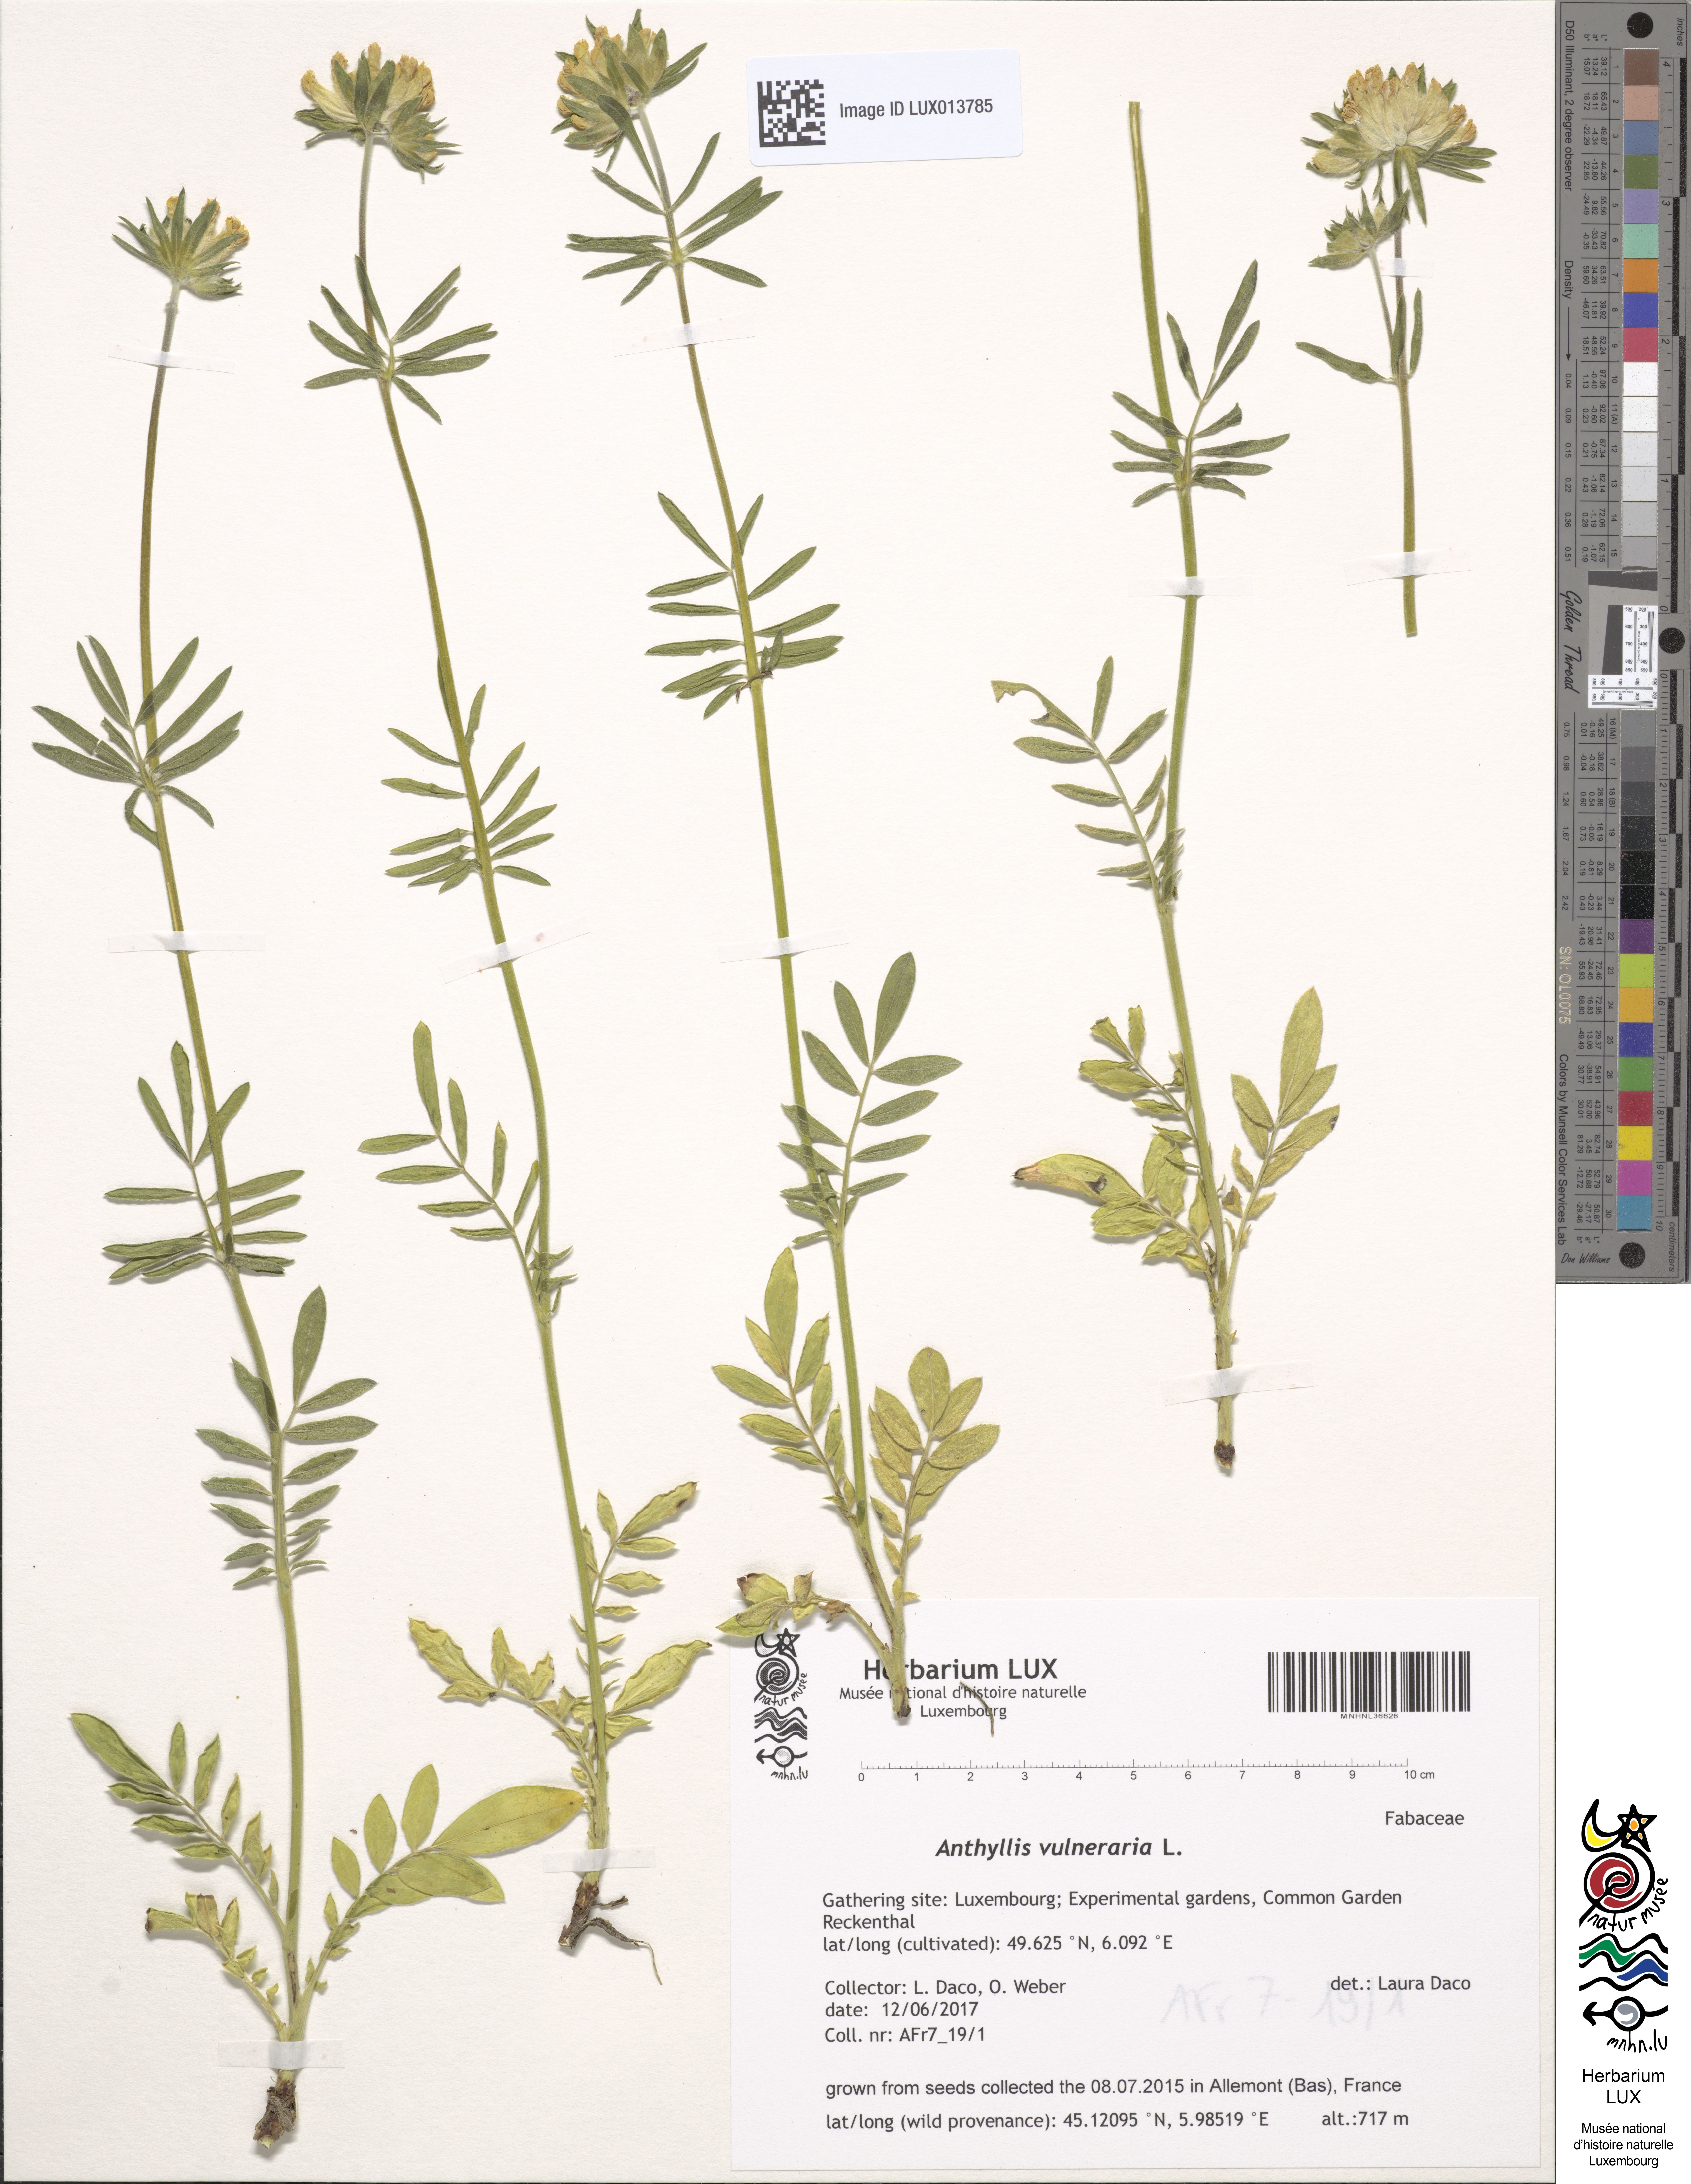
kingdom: Plantae
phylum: Tracheophyta
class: Magnoliopsida
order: Fabales
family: Fabaceae
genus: Anthyllis
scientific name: Anthyllis vulneraria
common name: Kidney vetch
